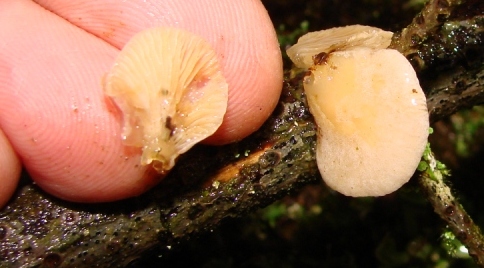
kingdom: Fungi
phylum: Basidiomycota
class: Agaricomycetes
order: Agaricales
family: Mycenaceae
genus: Panellus
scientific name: Panellus mitis
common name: mild epaulethat
